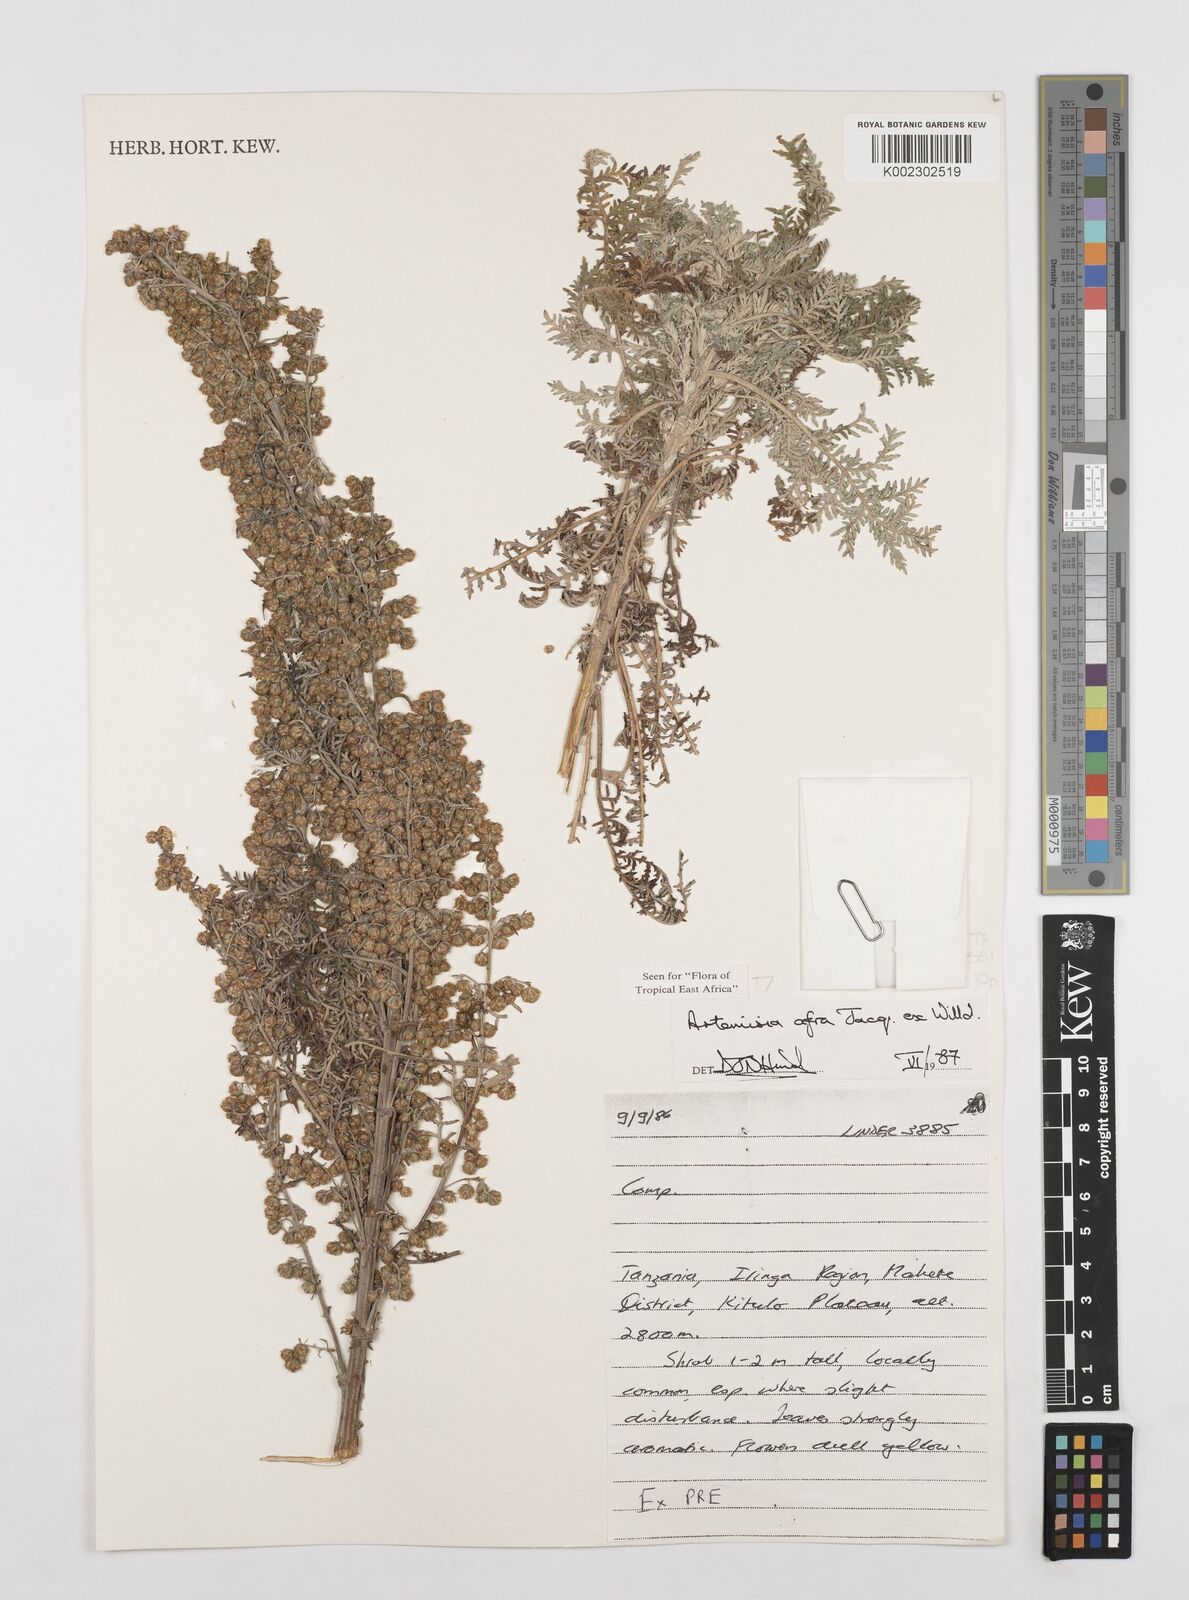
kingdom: Plantae
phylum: Tracheophyta
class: Magnoliopsida
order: Asterales
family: Asteraceae
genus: Artemisia
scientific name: Artemisia afra
